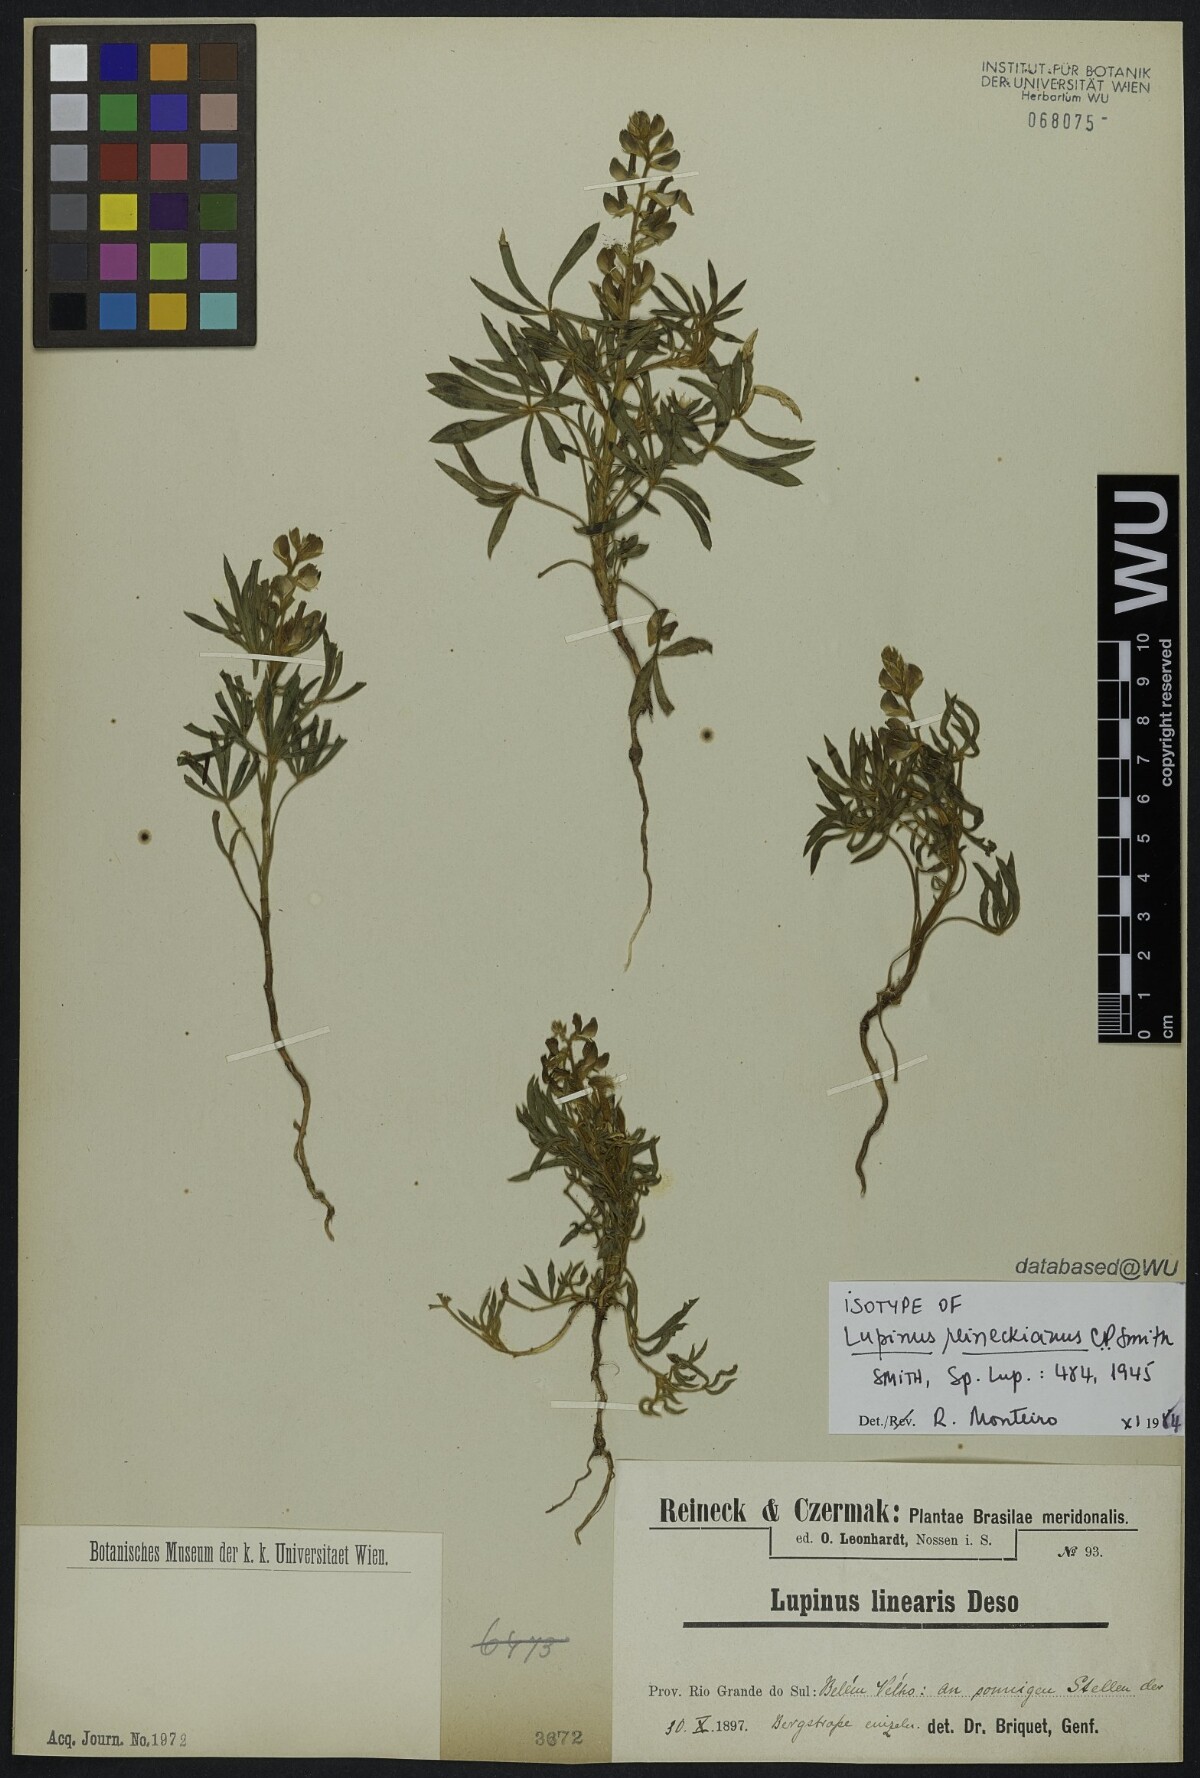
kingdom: Plantae
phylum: Tracheophyta
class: Magnoliopsida
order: Fabales
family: Fabaceae
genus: Lupinus
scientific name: Lupinus gibertianus
